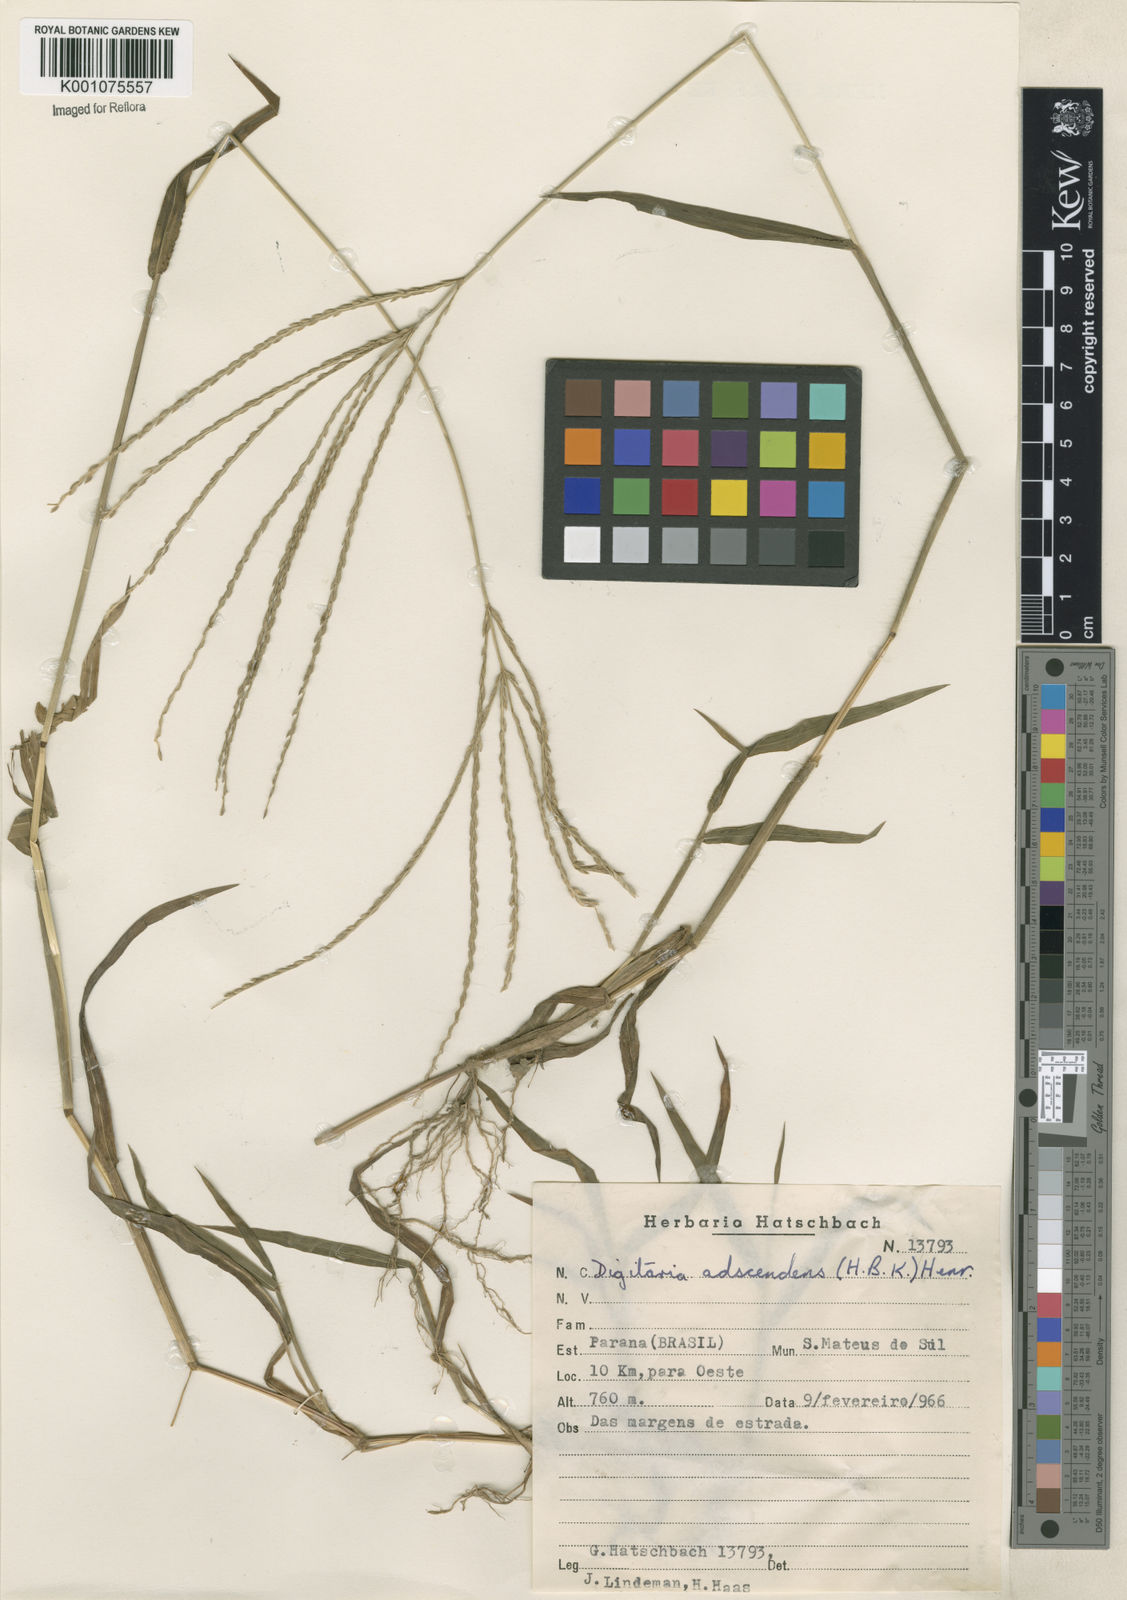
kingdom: Plantae
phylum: Tracheophyta
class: Liliopsida
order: Poales
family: Poaceae
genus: Digitaria
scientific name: Digitaria ciliaris
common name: Tropical finger-grass
